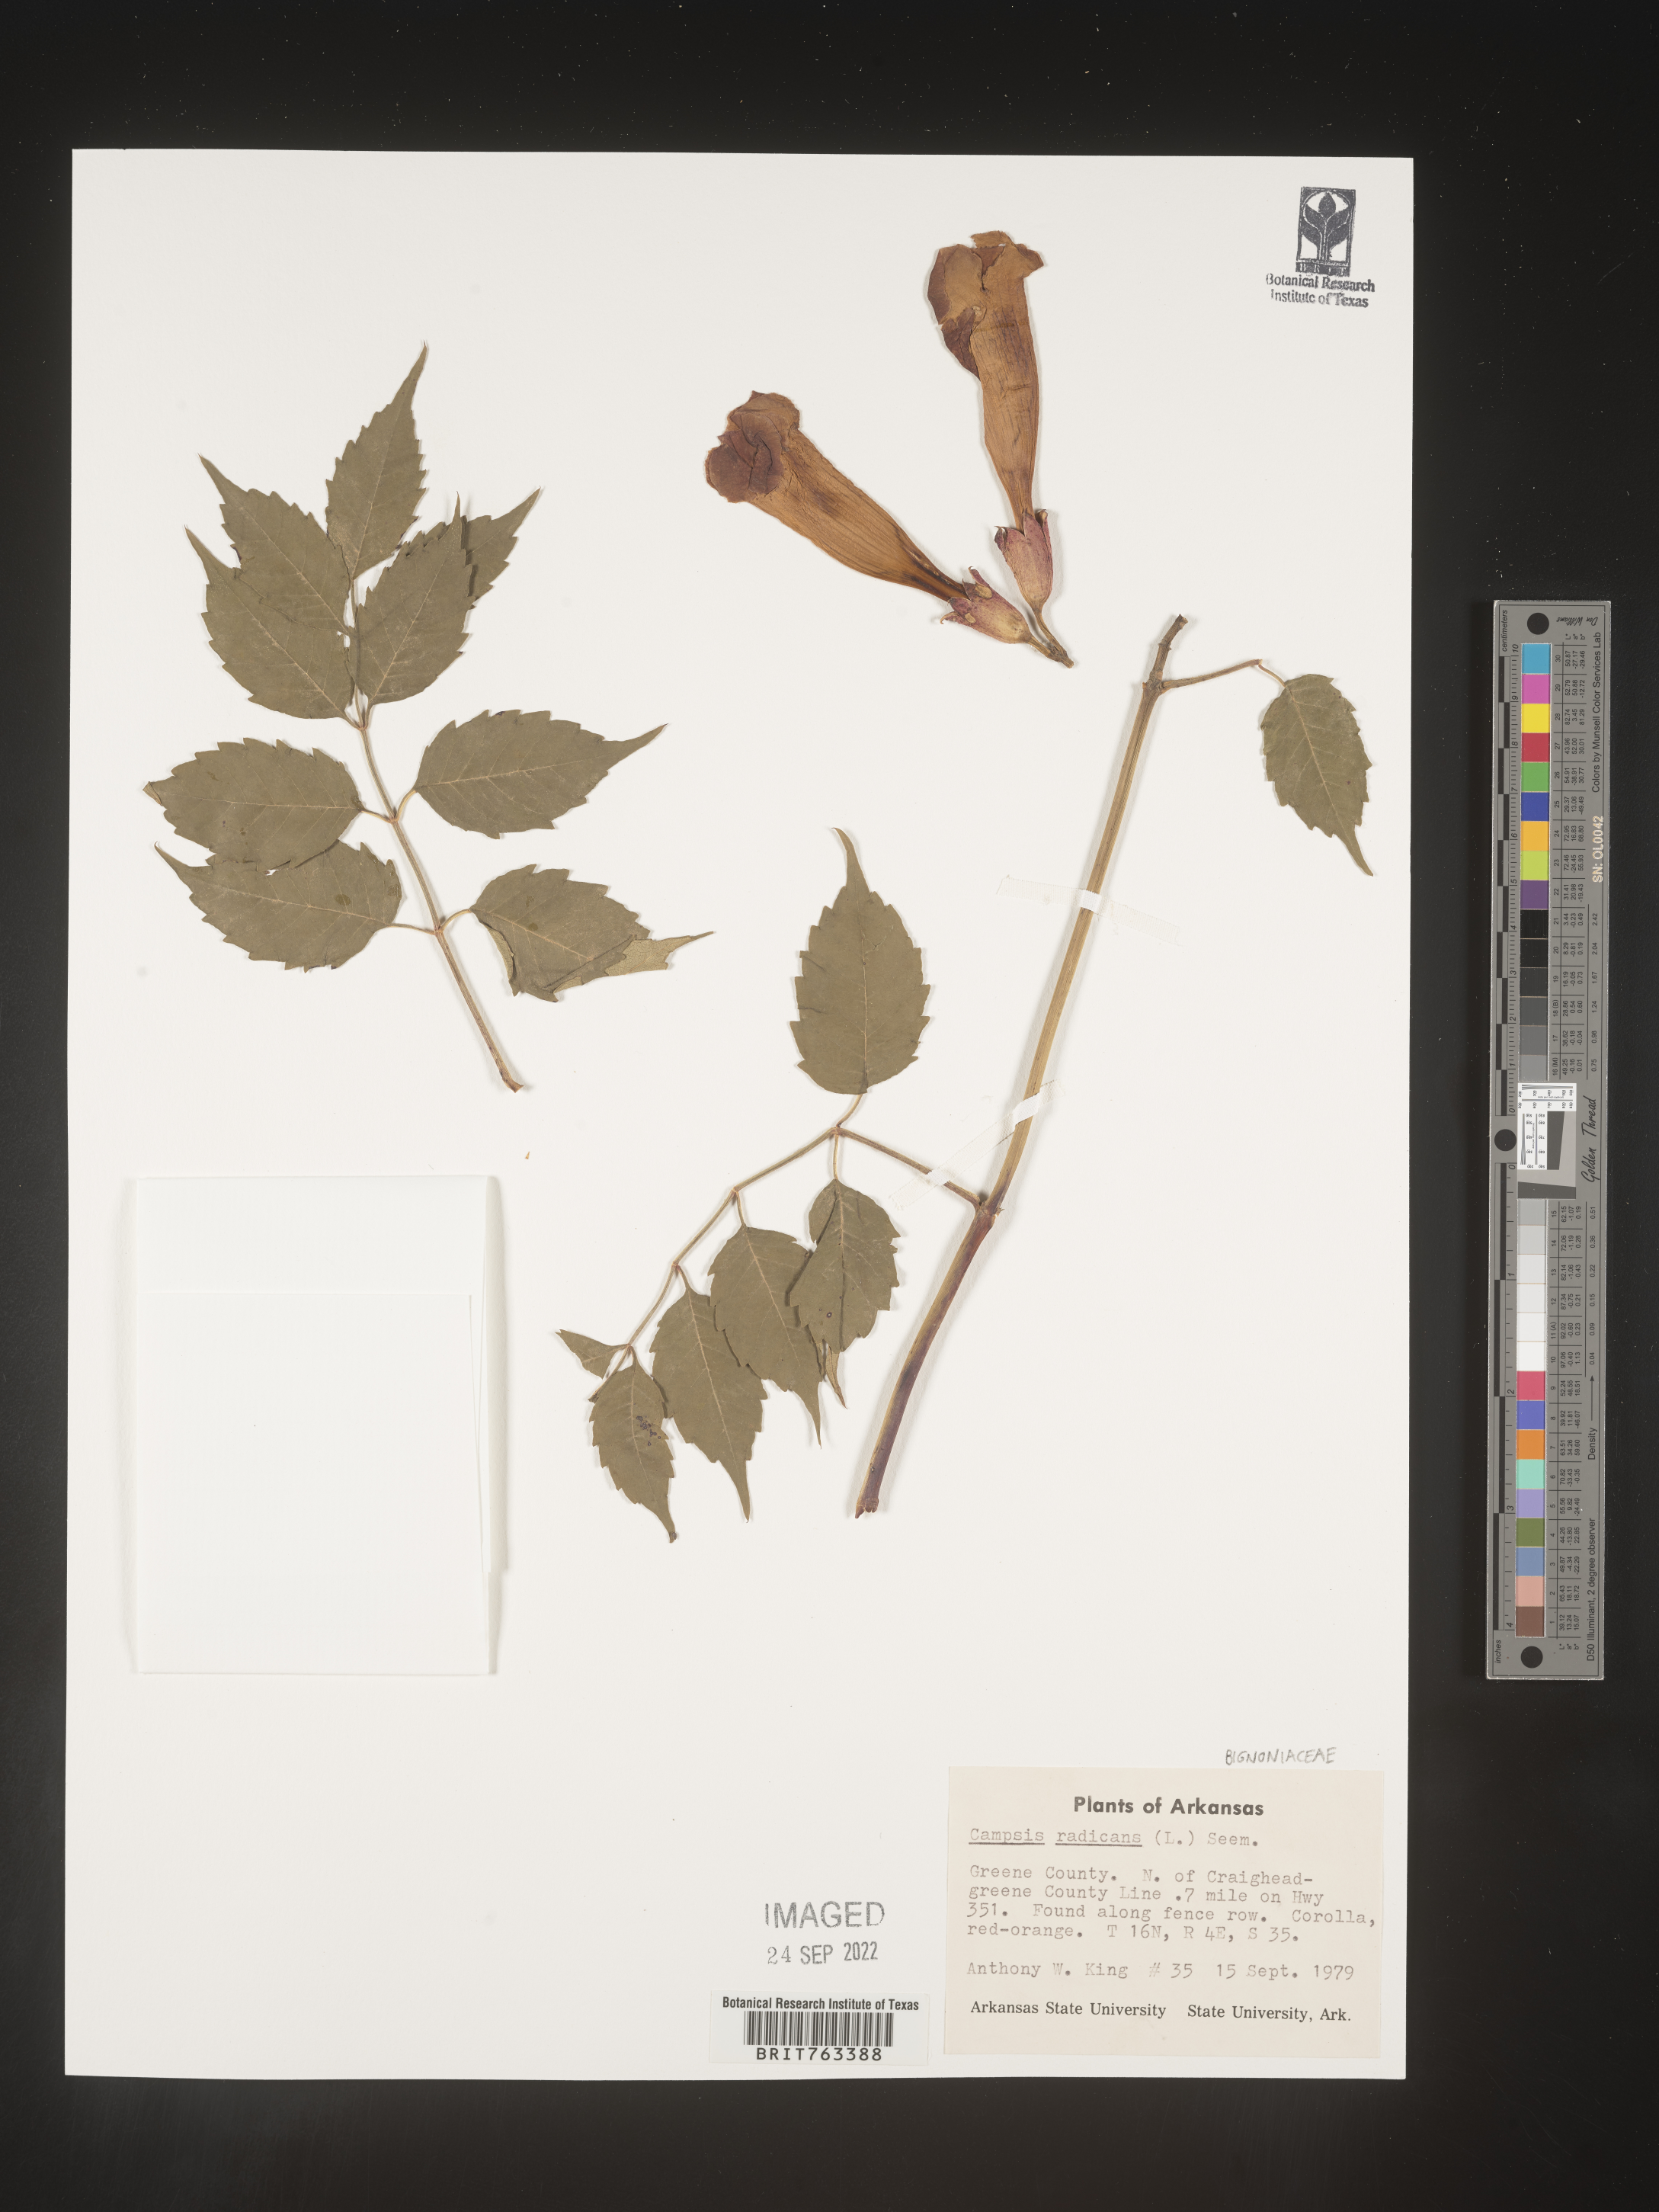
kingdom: Plantae
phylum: Tracheophyta
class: Magnoliopsida
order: Lamiales
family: Bignoniaceae
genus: Campsis
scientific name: Campsis radicans
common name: Trumpet-creeper
